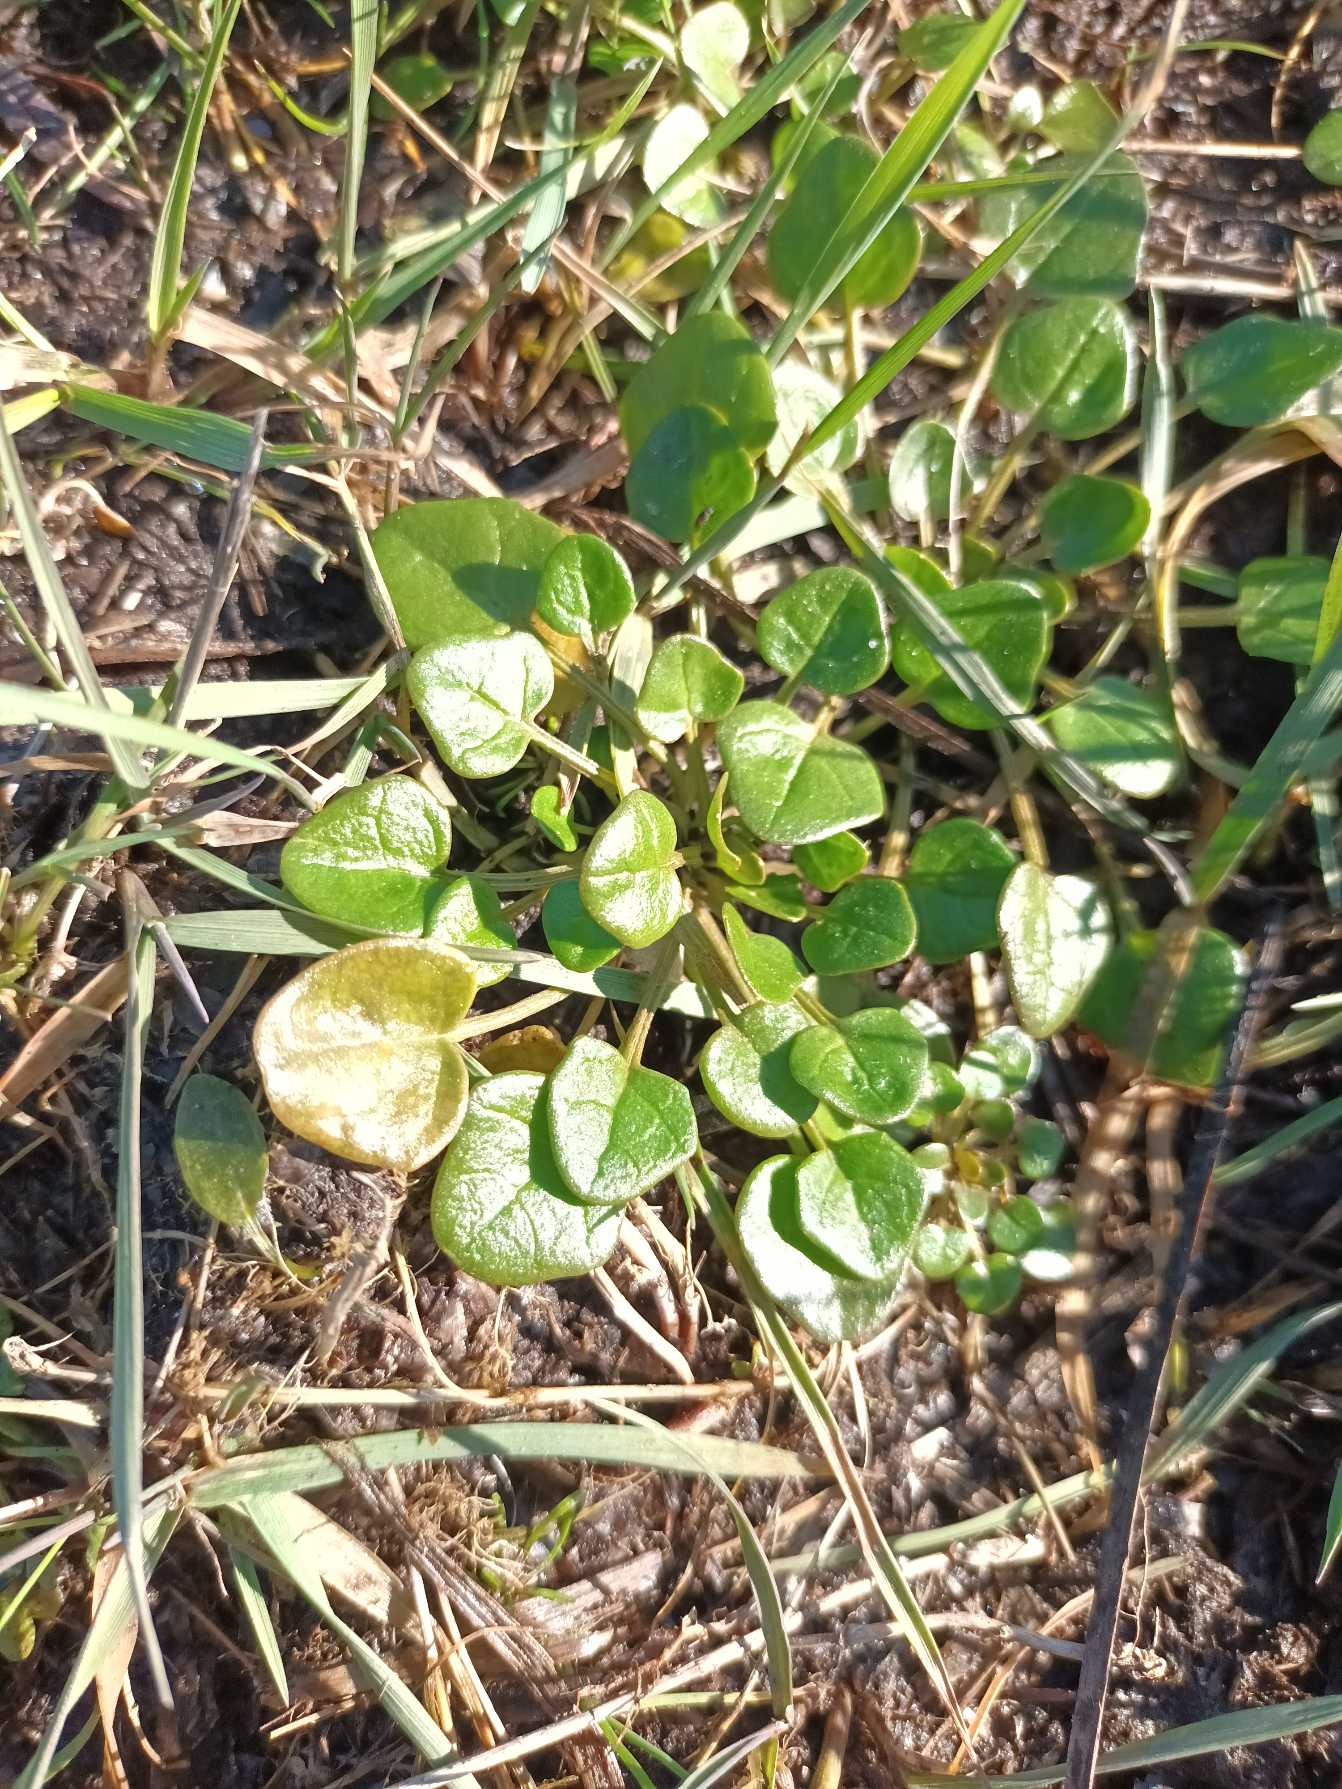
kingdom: Plantae
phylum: Tracheophyta
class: Magnoliopsida
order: Brassicales
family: Brassicaceae
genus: Cochlearia
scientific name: Cochlearia officinalis
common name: Læge-kokleare (underart)
